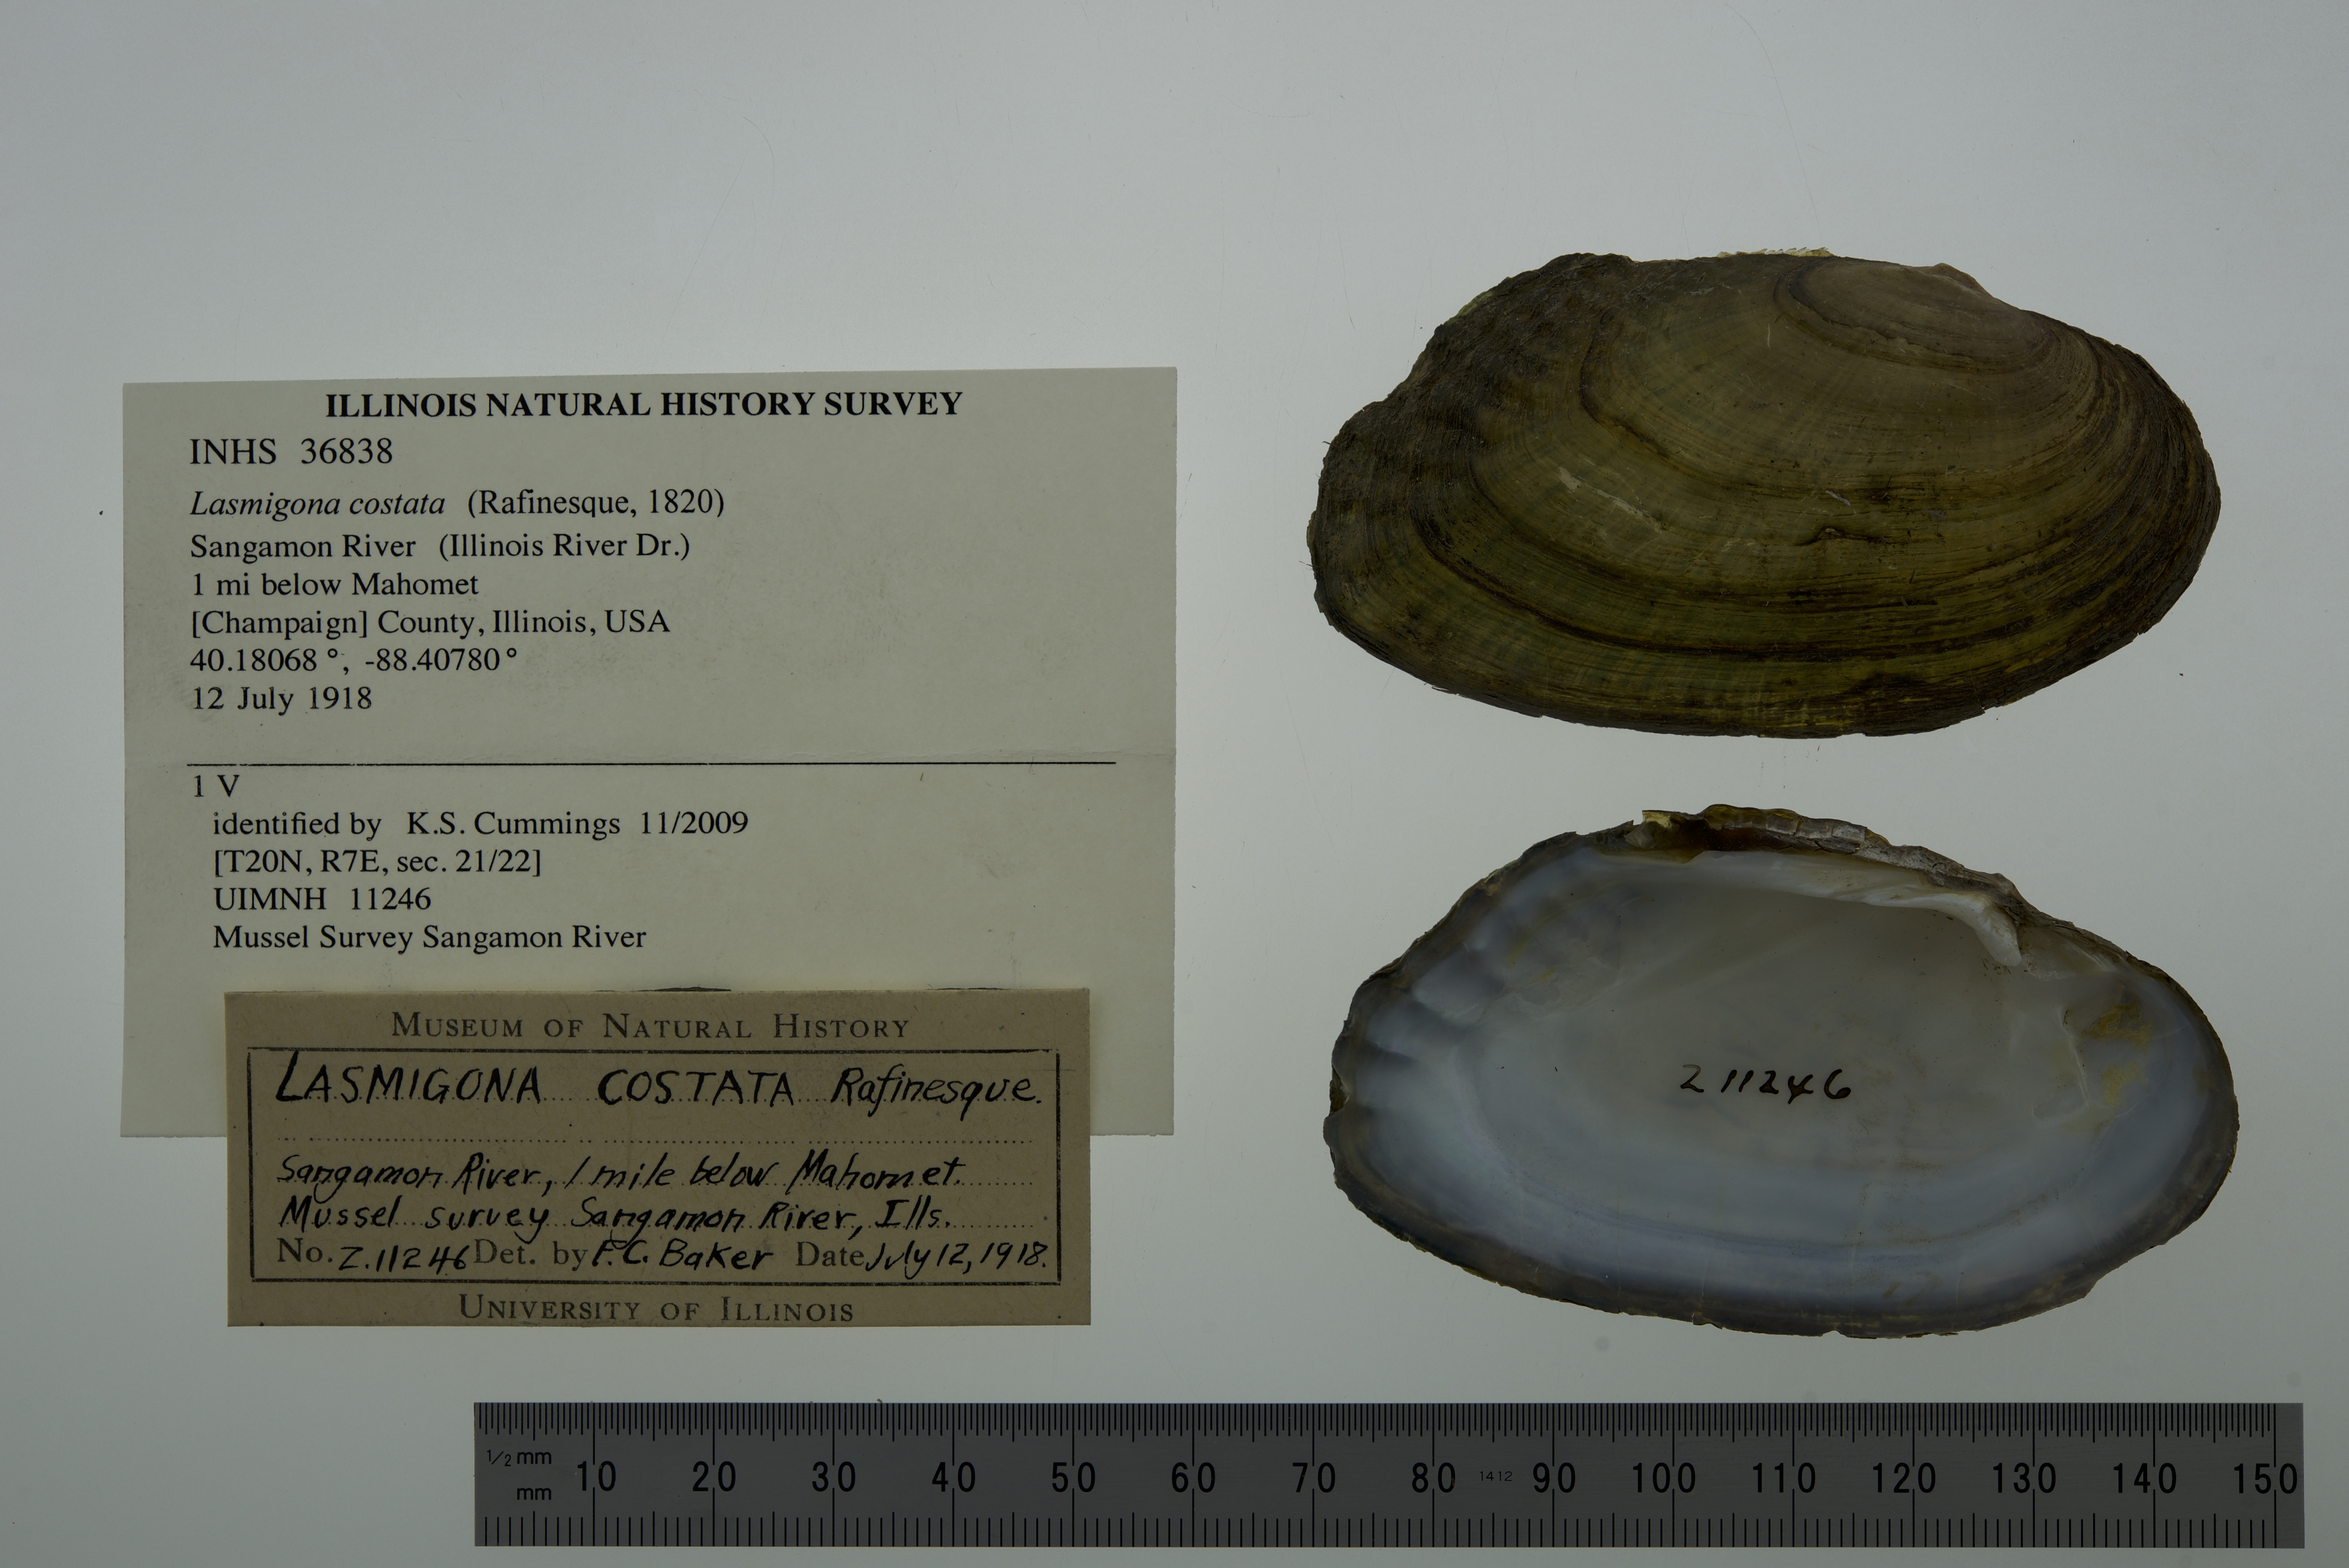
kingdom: Animalia
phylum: Mollusca
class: Bivalvia
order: Unionida
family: Unionidae
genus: Lasmigona
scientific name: Lasmigona costata
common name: Flutedshell
